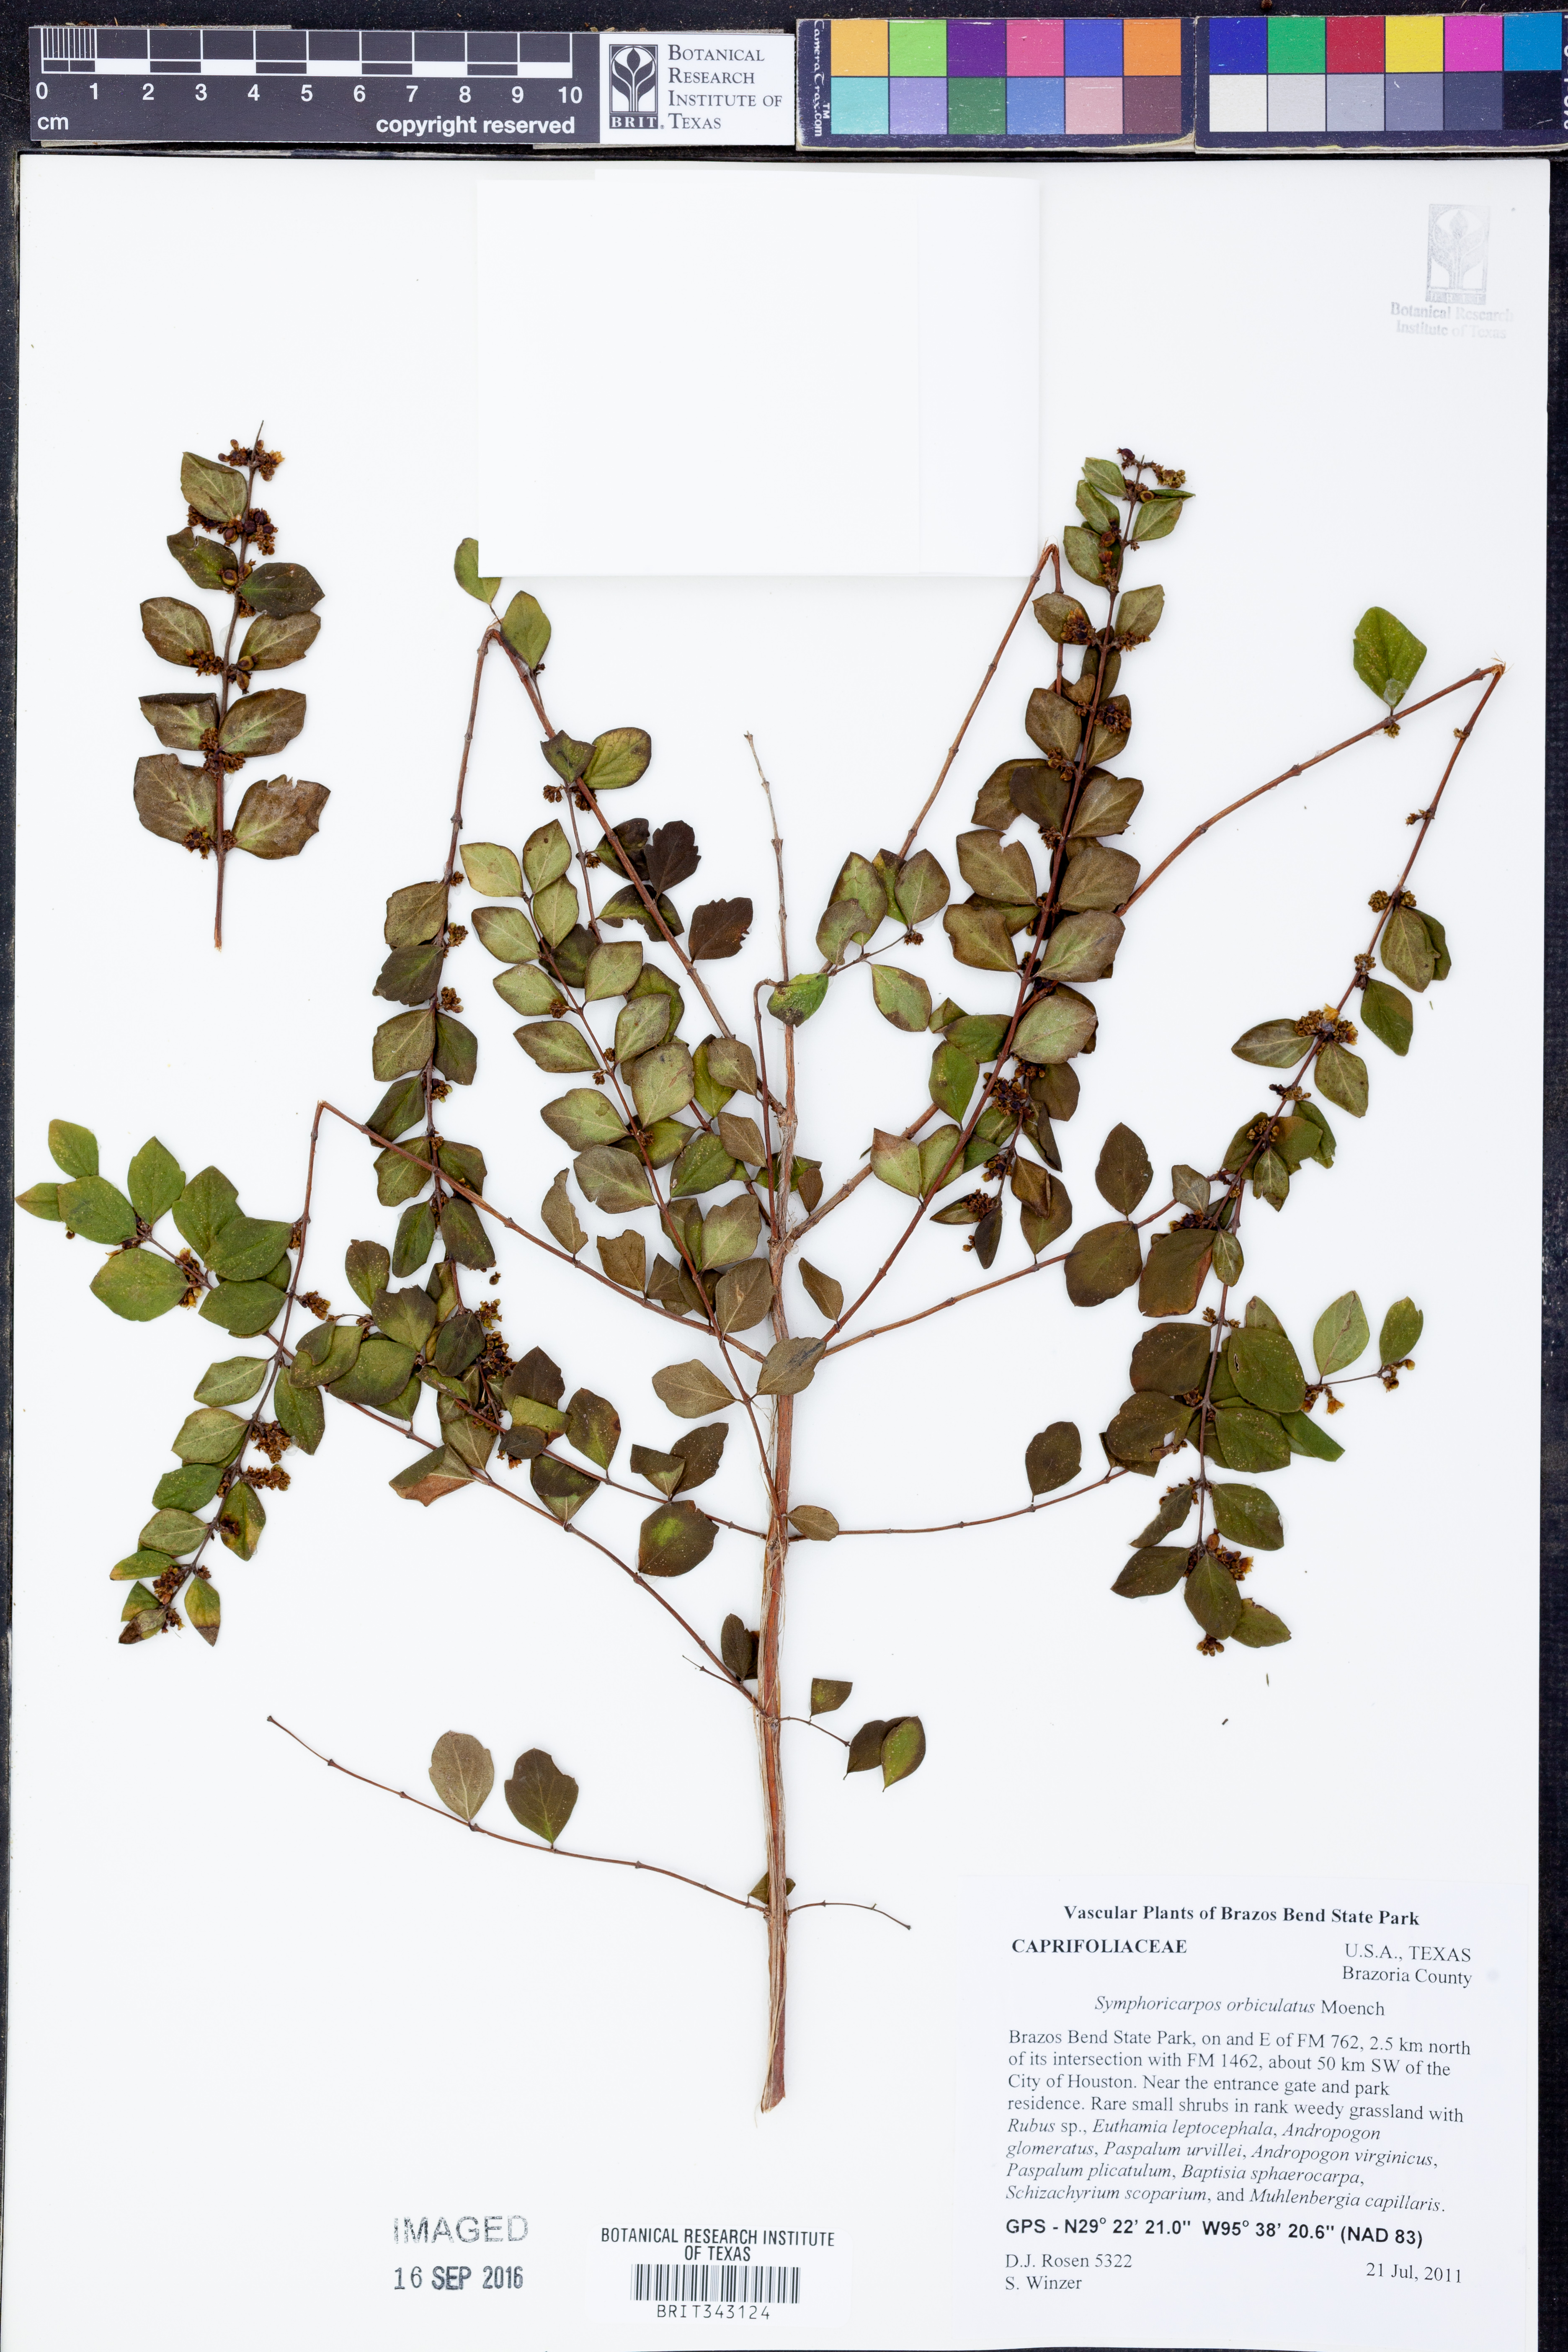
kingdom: Plantae
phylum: Tracheophyta
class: Magnoliopsida
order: Dipsacales
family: Caprifoliaceae
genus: Symphoricarpos
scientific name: Symphoricarpos orbiculatus
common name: Coralberry
